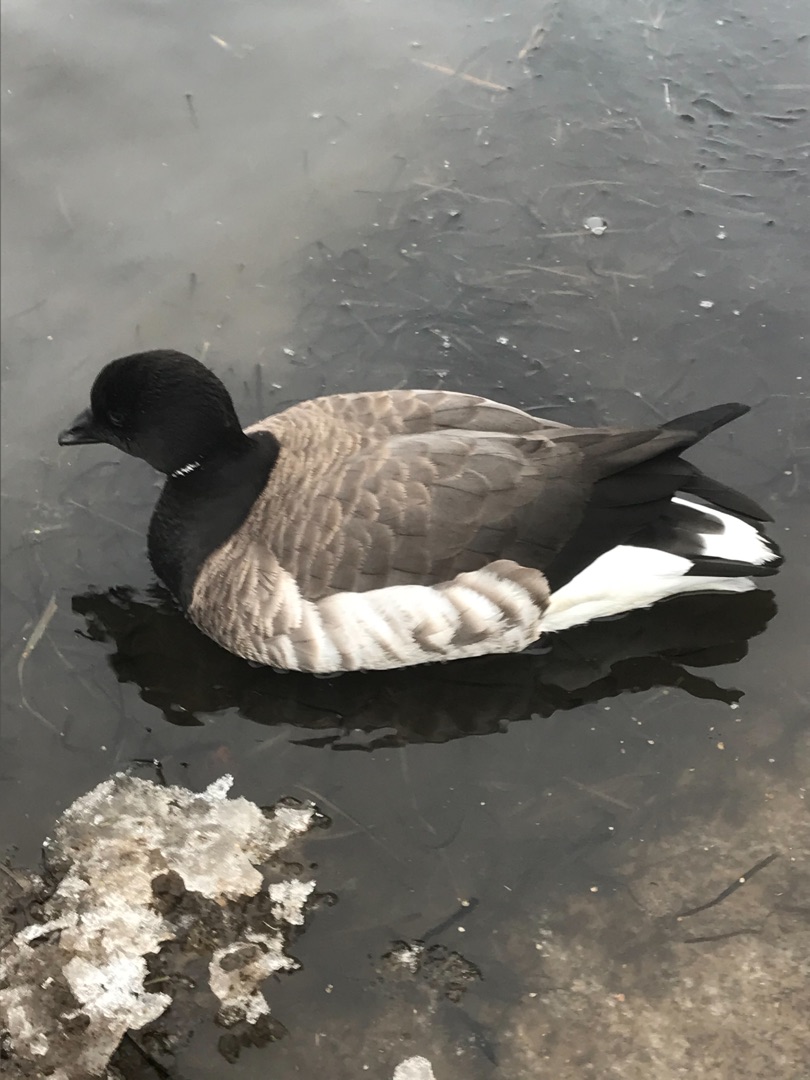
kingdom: Animalia
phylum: Chordata
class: Aves
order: Anseriformes
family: Anatidae
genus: Branta
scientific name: Branta bernicla
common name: Lysbuget knortegås
